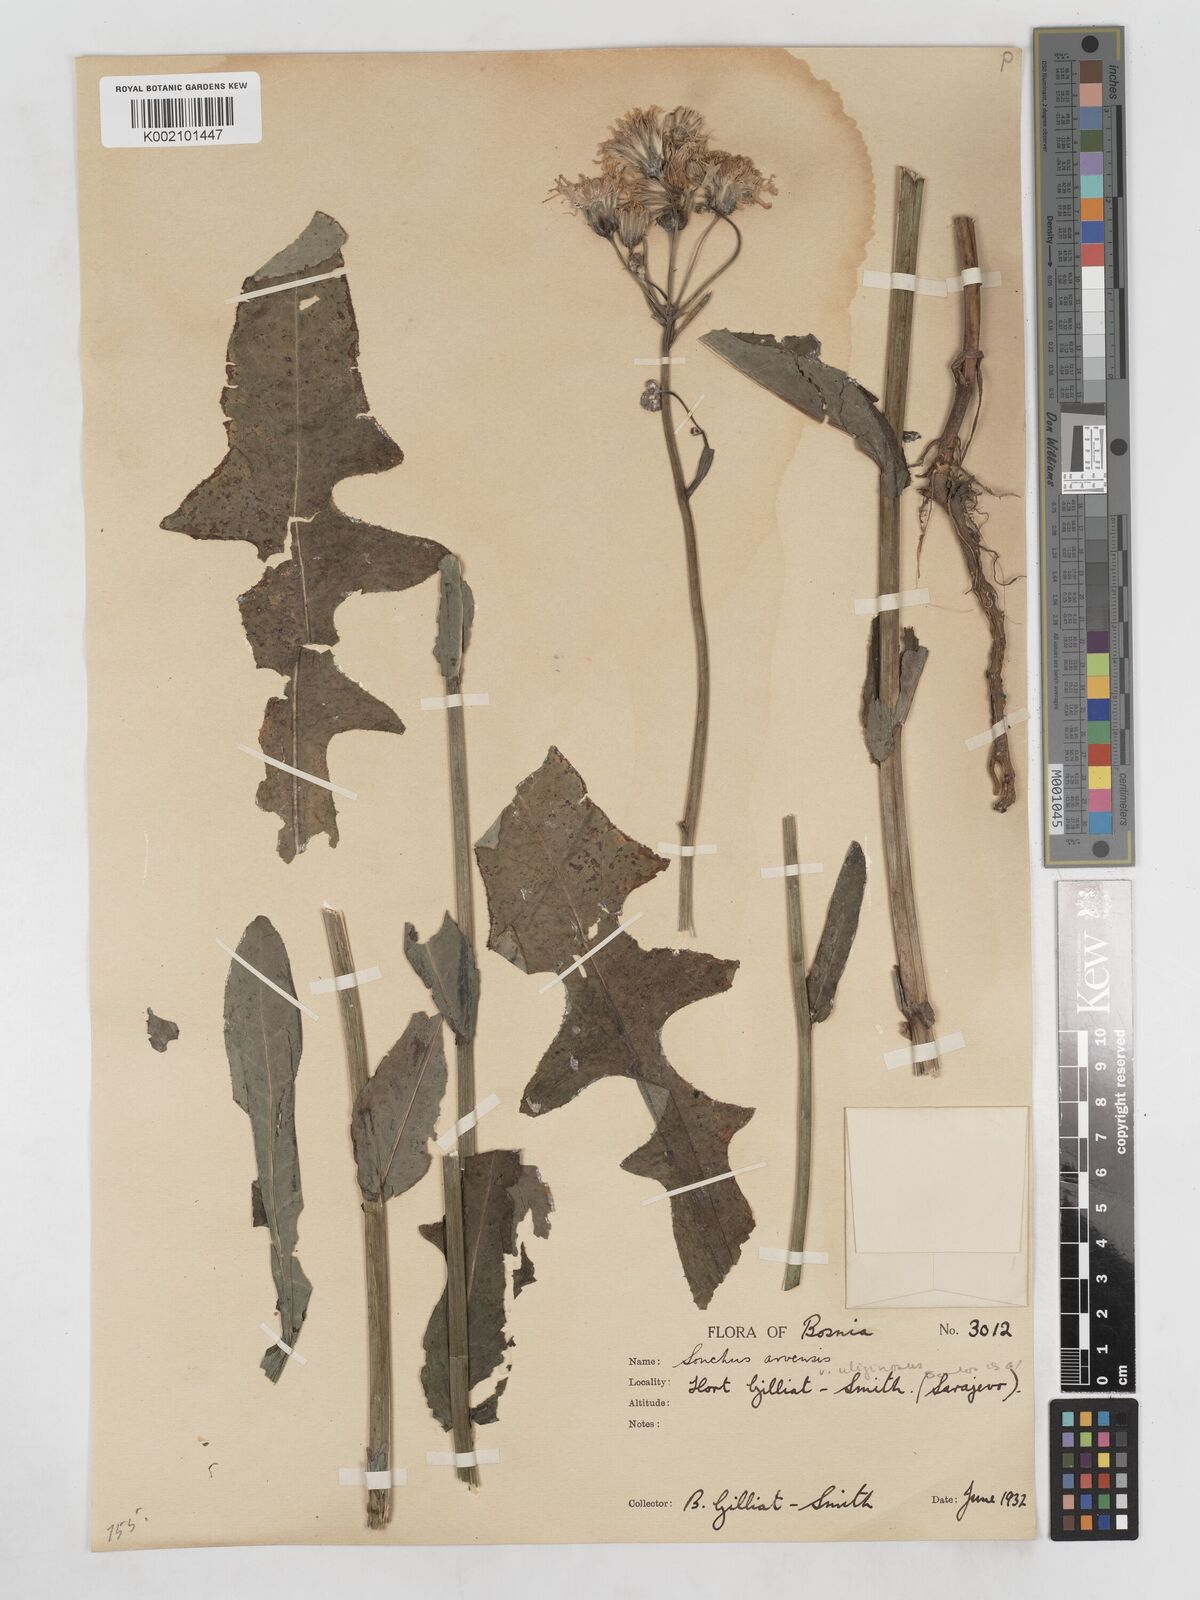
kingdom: Plantae
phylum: Tracheophyta
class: Magnoliopsida
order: Asterales
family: Asteraceae
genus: Sonchus
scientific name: Sonchus arvensis
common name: Perennial sow-thistle
